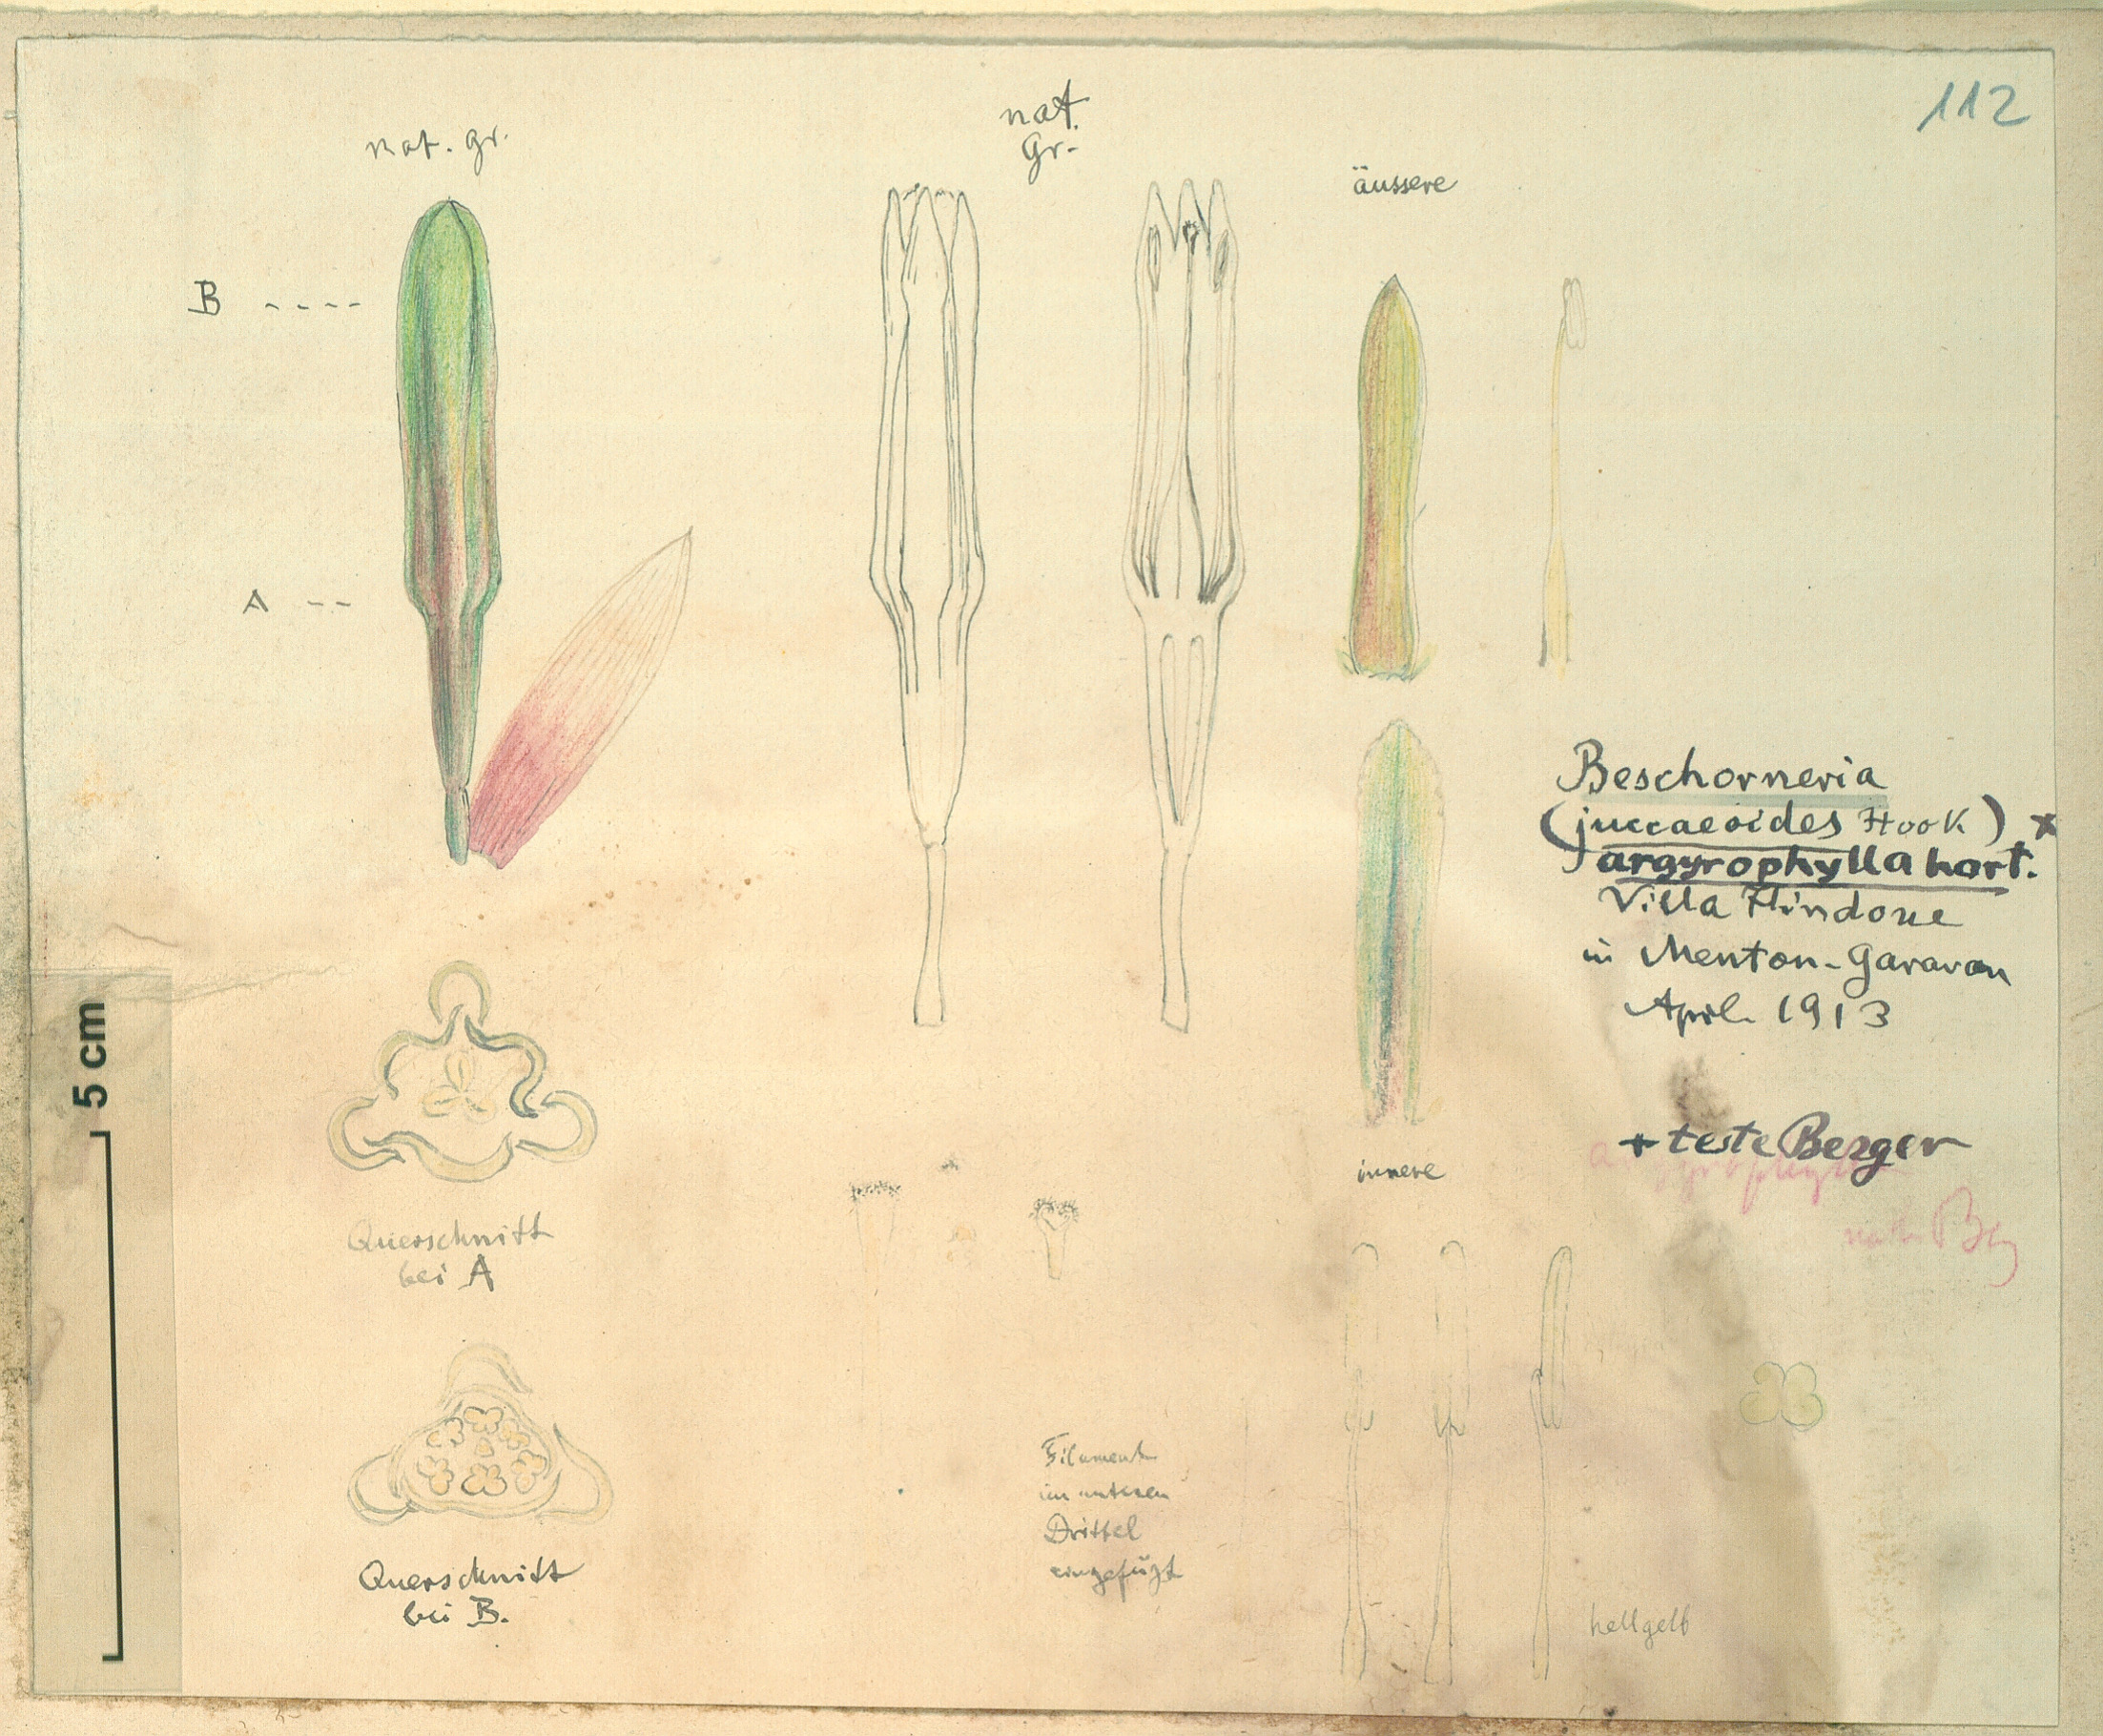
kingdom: Plantae
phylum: Tracheophyta
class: Liliopsida
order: Asparagales
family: Asparagaceae
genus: Beschorneria
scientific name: Beschorneria yuccoides
